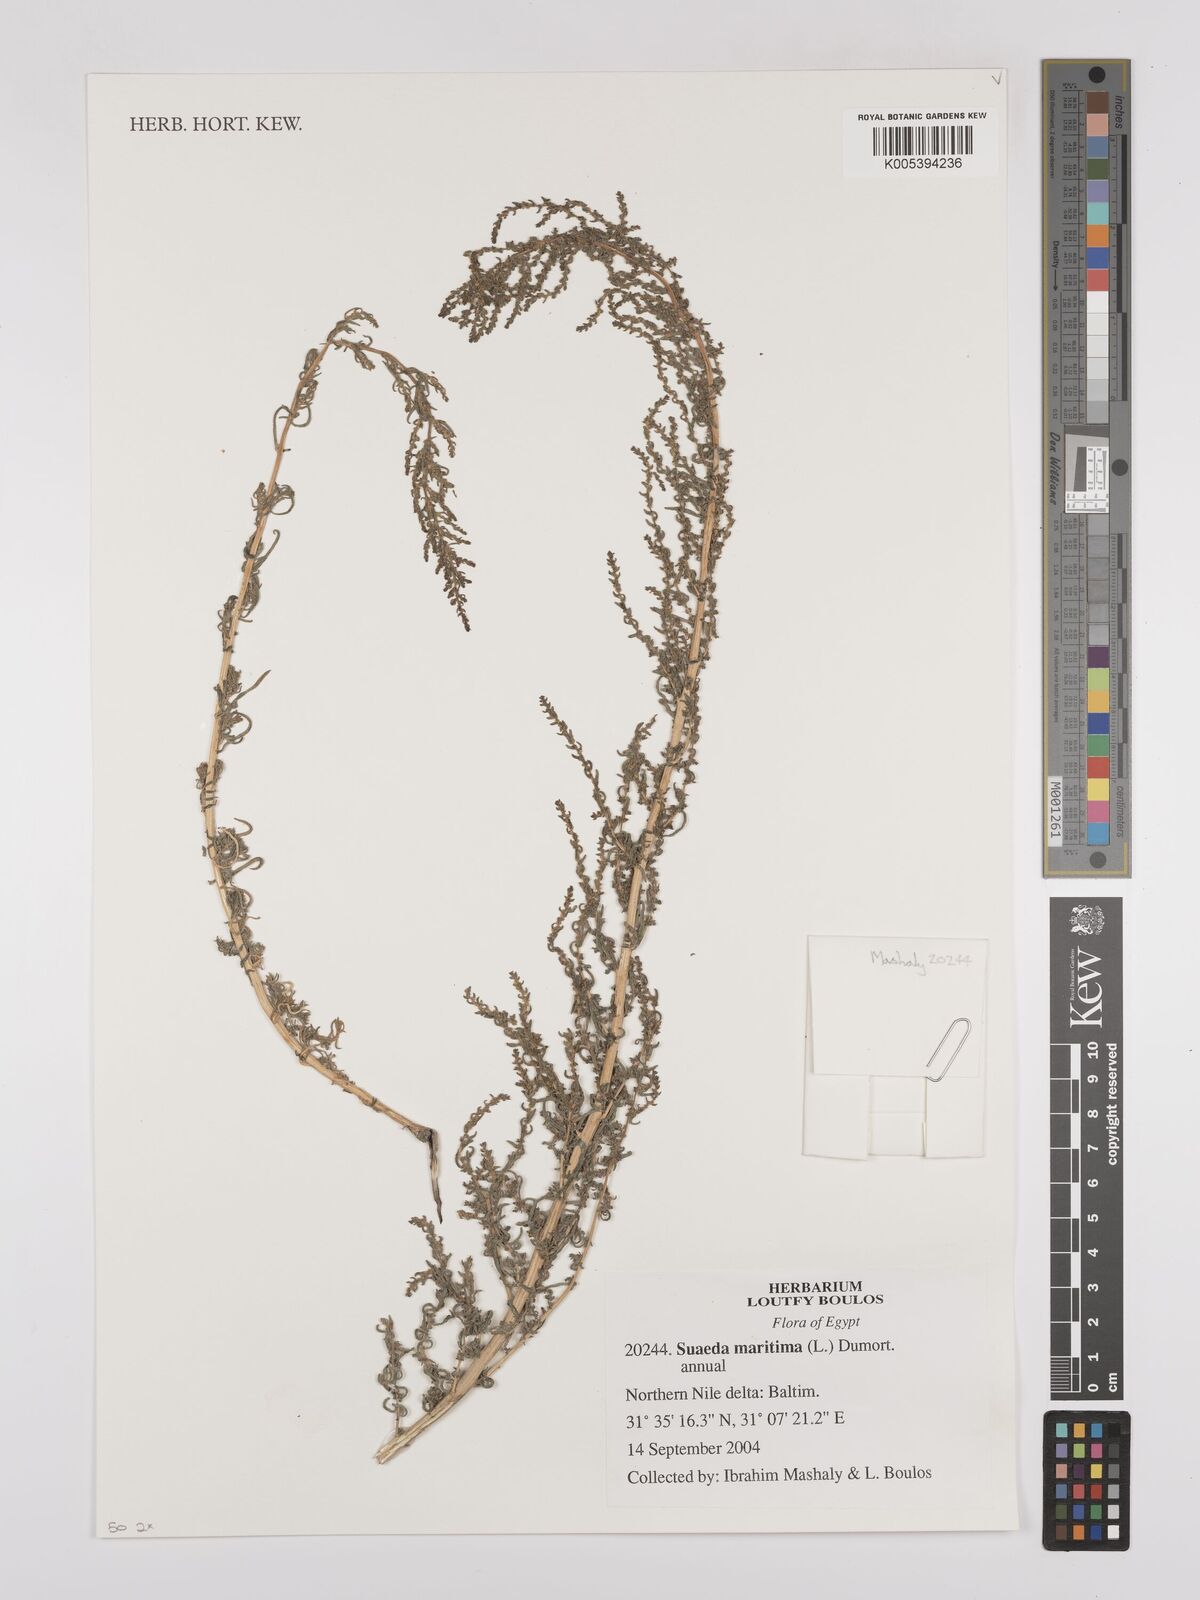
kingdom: Plantae
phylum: Tracheophyta
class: Magnoliopsida
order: Caryophyllales
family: Amaranthaceae
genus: Suaeda
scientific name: Suaeda
